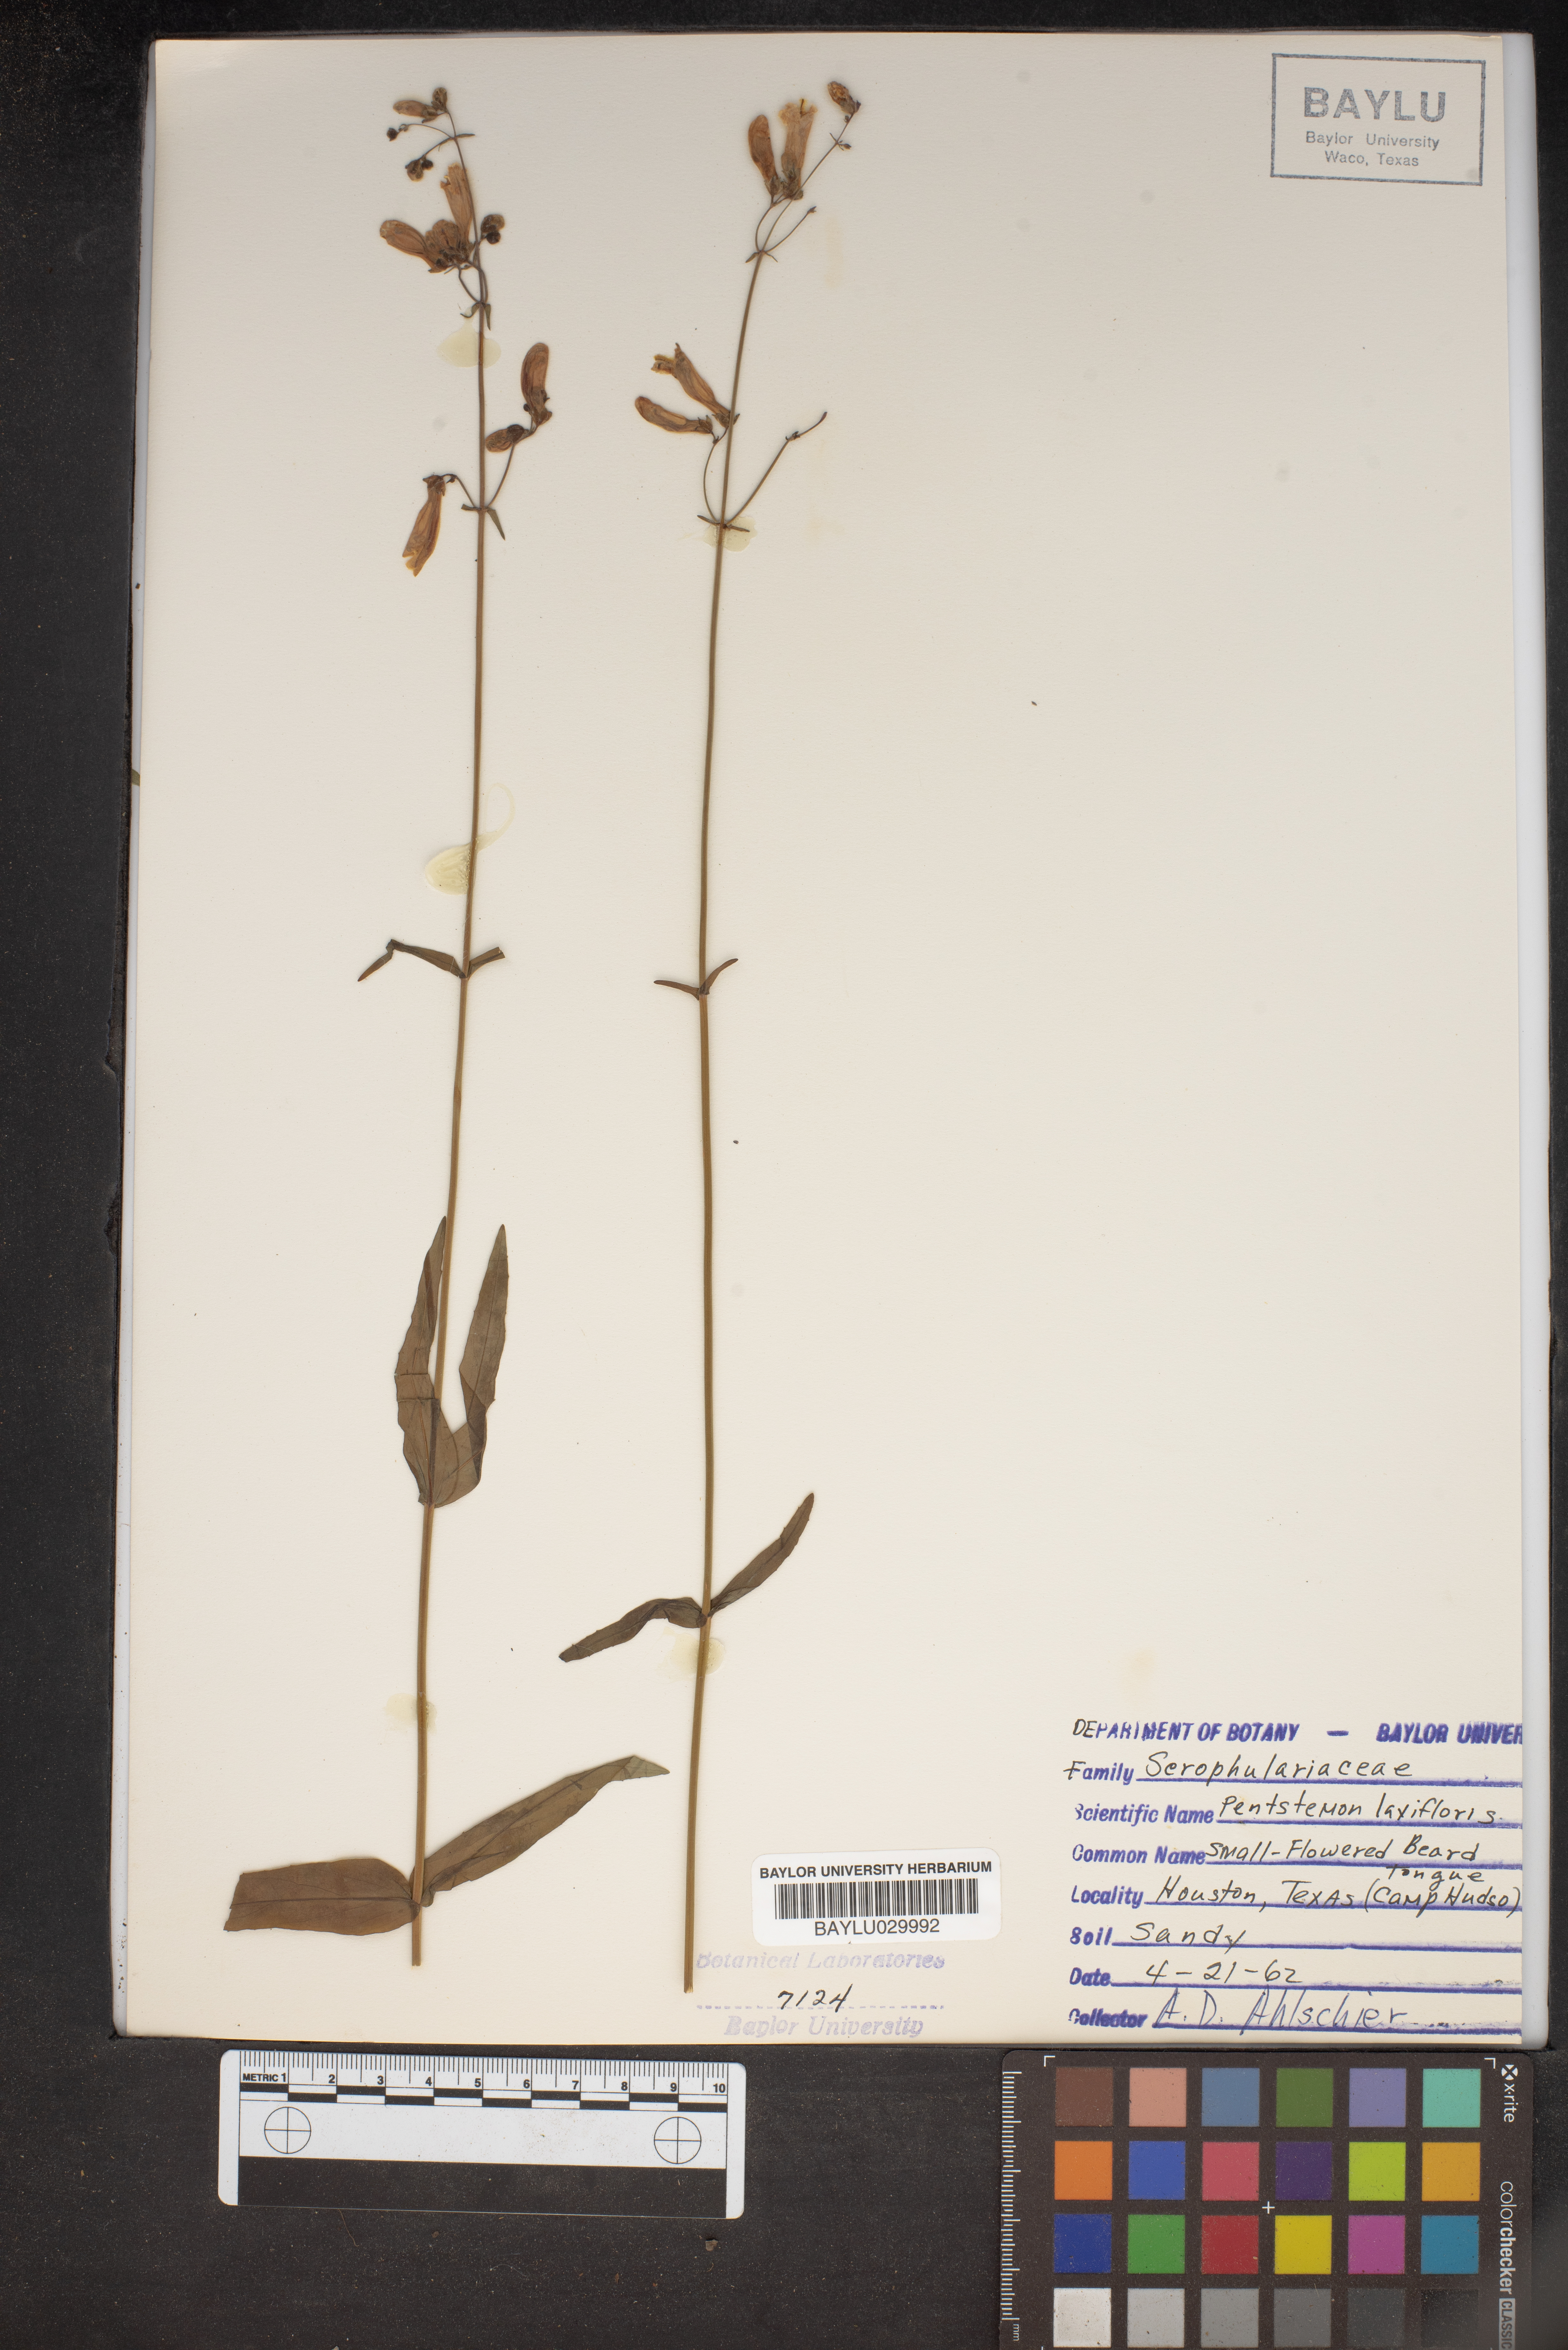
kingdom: Plantae
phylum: Tracheophyta
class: Magnoliopsida
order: Lamiales
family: Plantaginaceae
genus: Penstemon
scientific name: Penstemon
